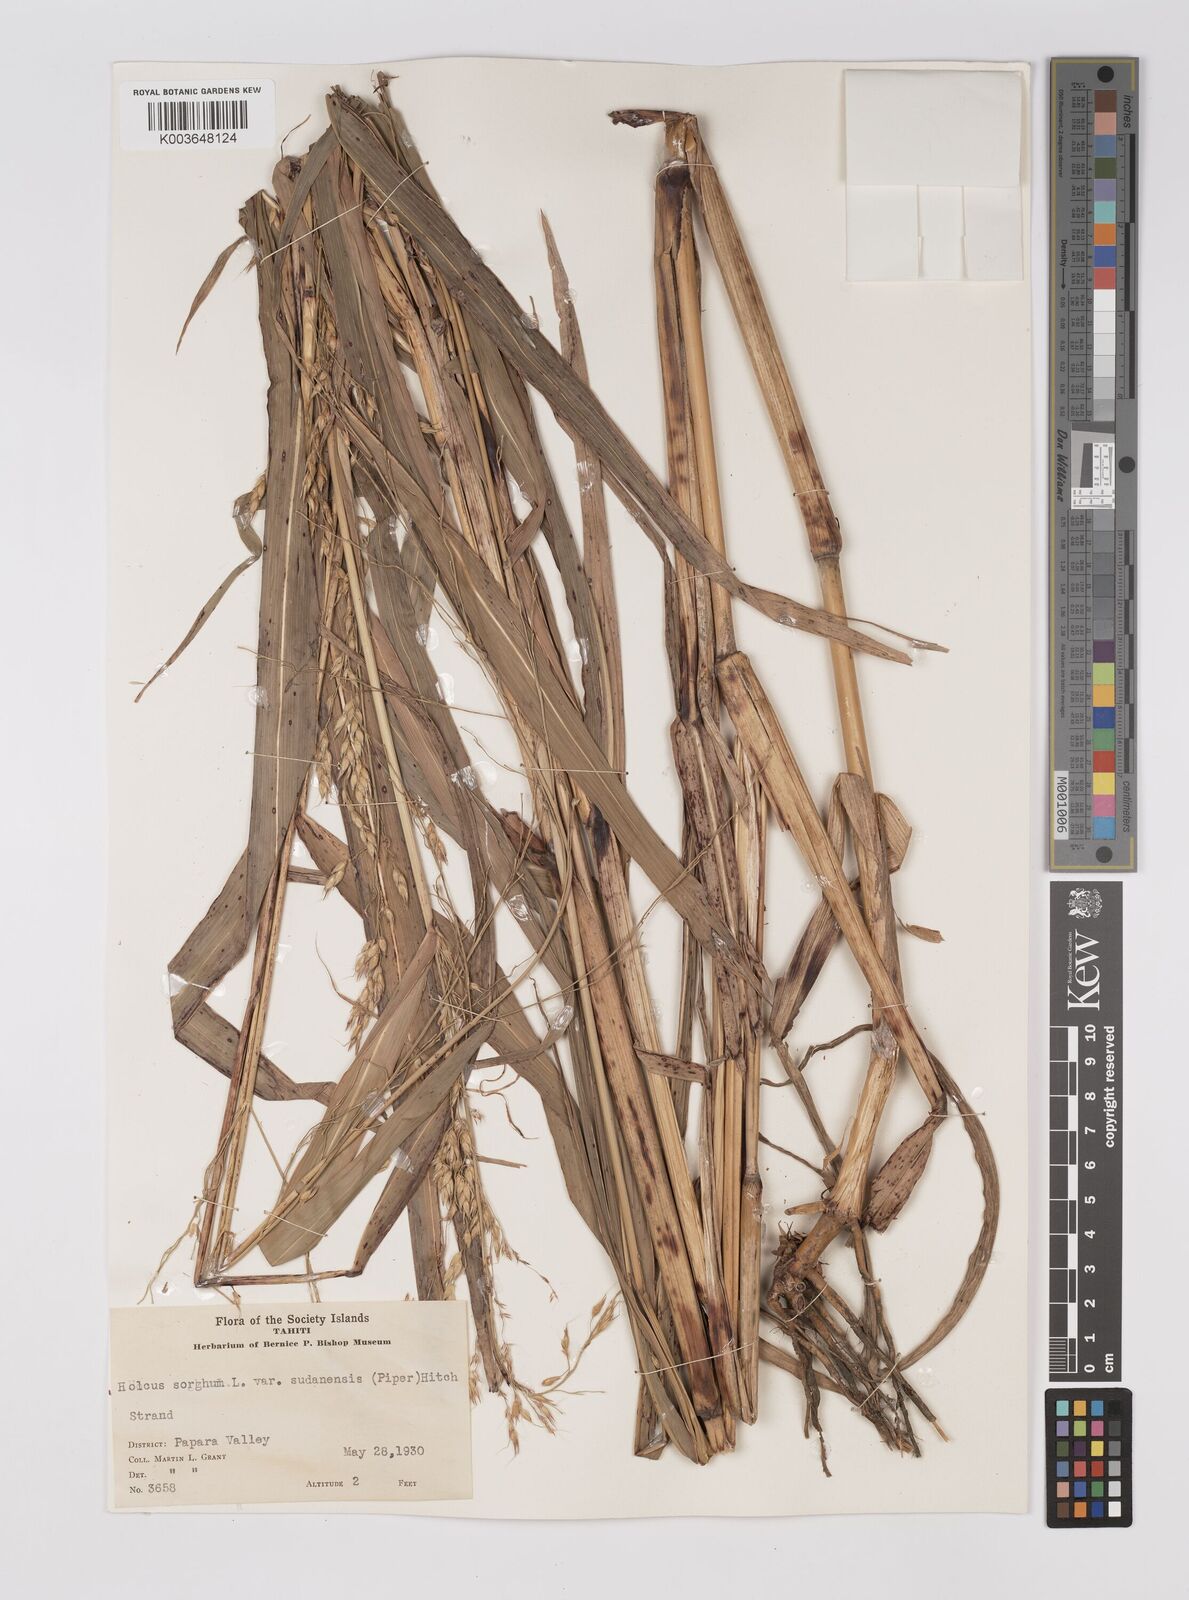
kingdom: Plantae
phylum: Tracheophyta
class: Liliopsida
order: Poales
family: Poaceae
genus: Sorghum
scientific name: Sorghum drummondii
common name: Sudangrass
